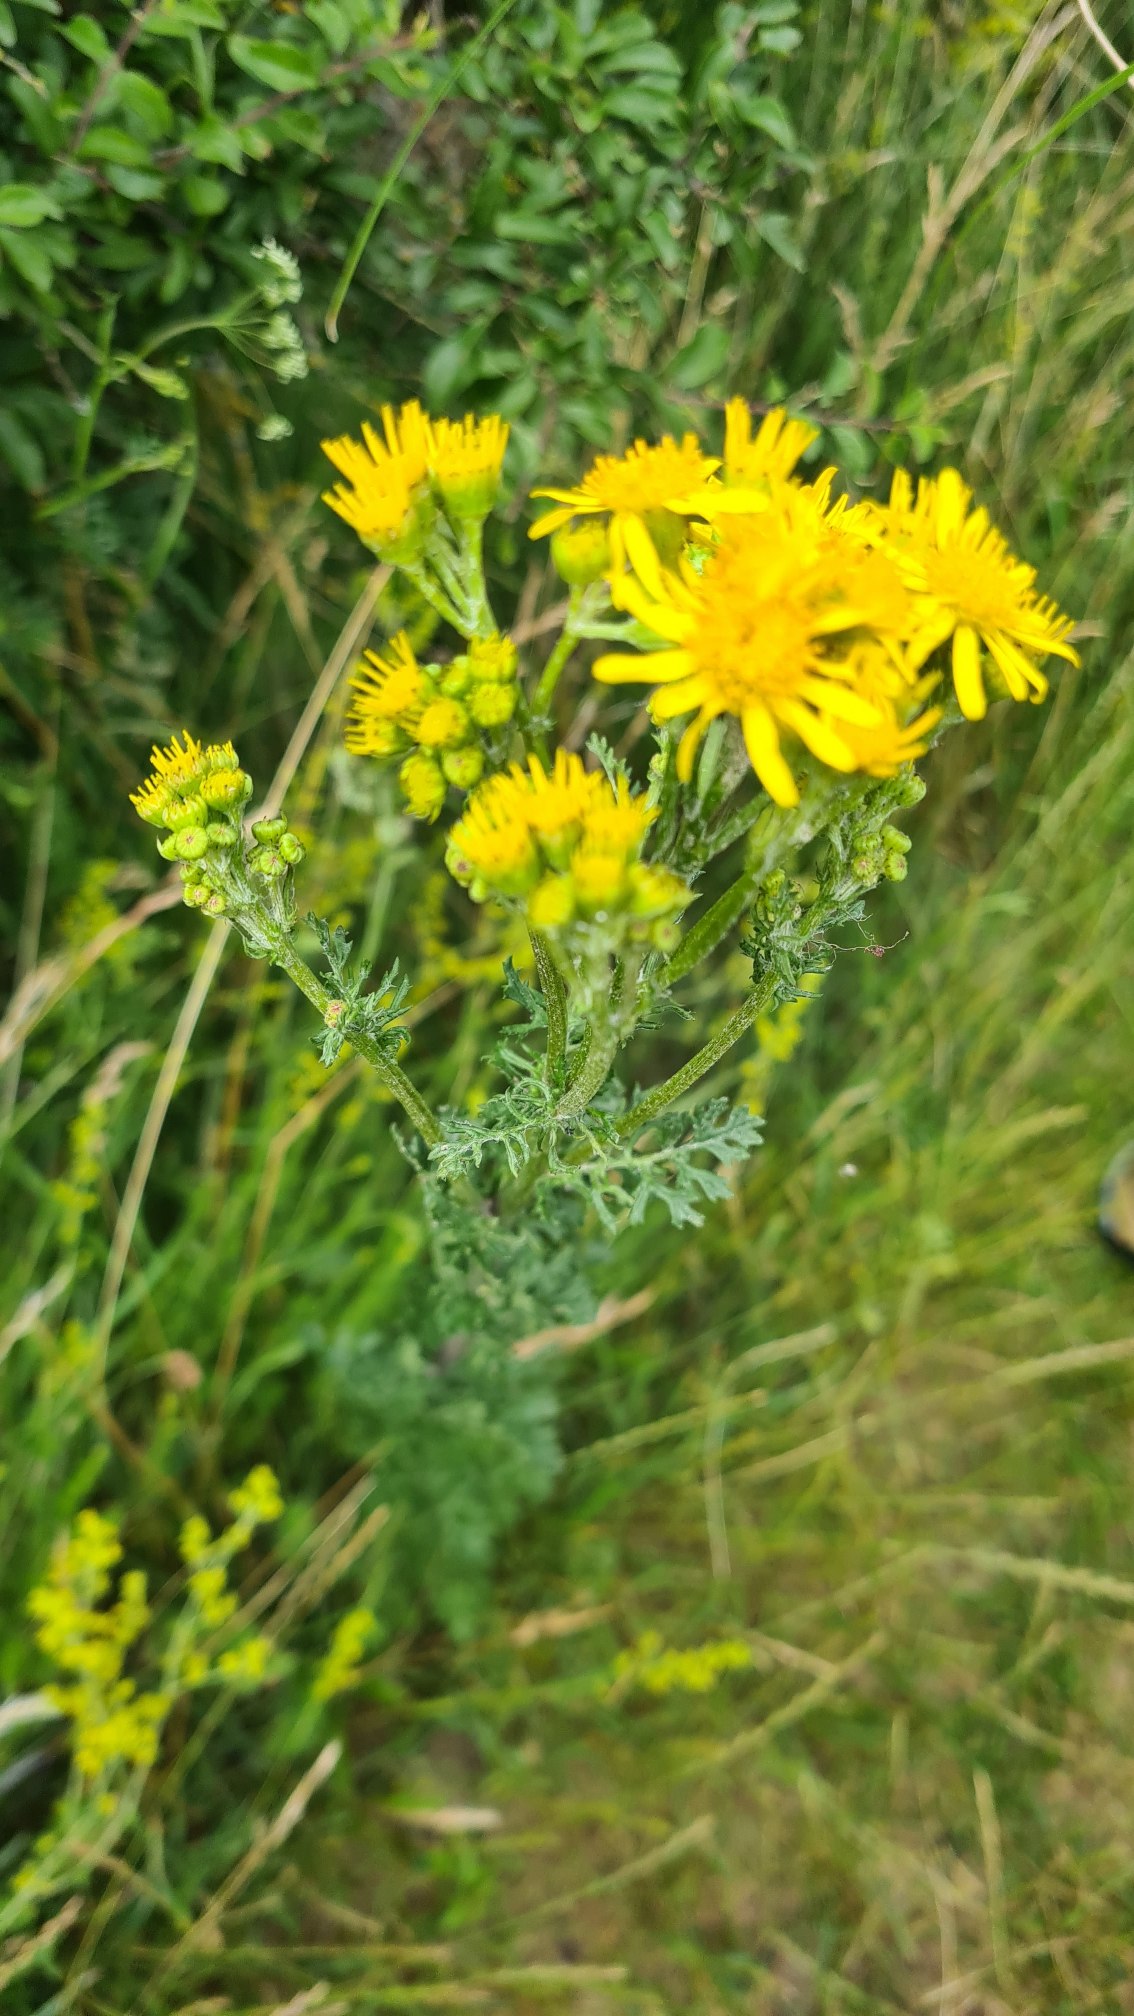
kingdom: Plantae
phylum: Tracheophyta
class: Magnoliopsida
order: Asterales
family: Asteraceae
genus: Jacobaea
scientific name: Jacobaea vulgaris
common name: Eng-brandbæger
